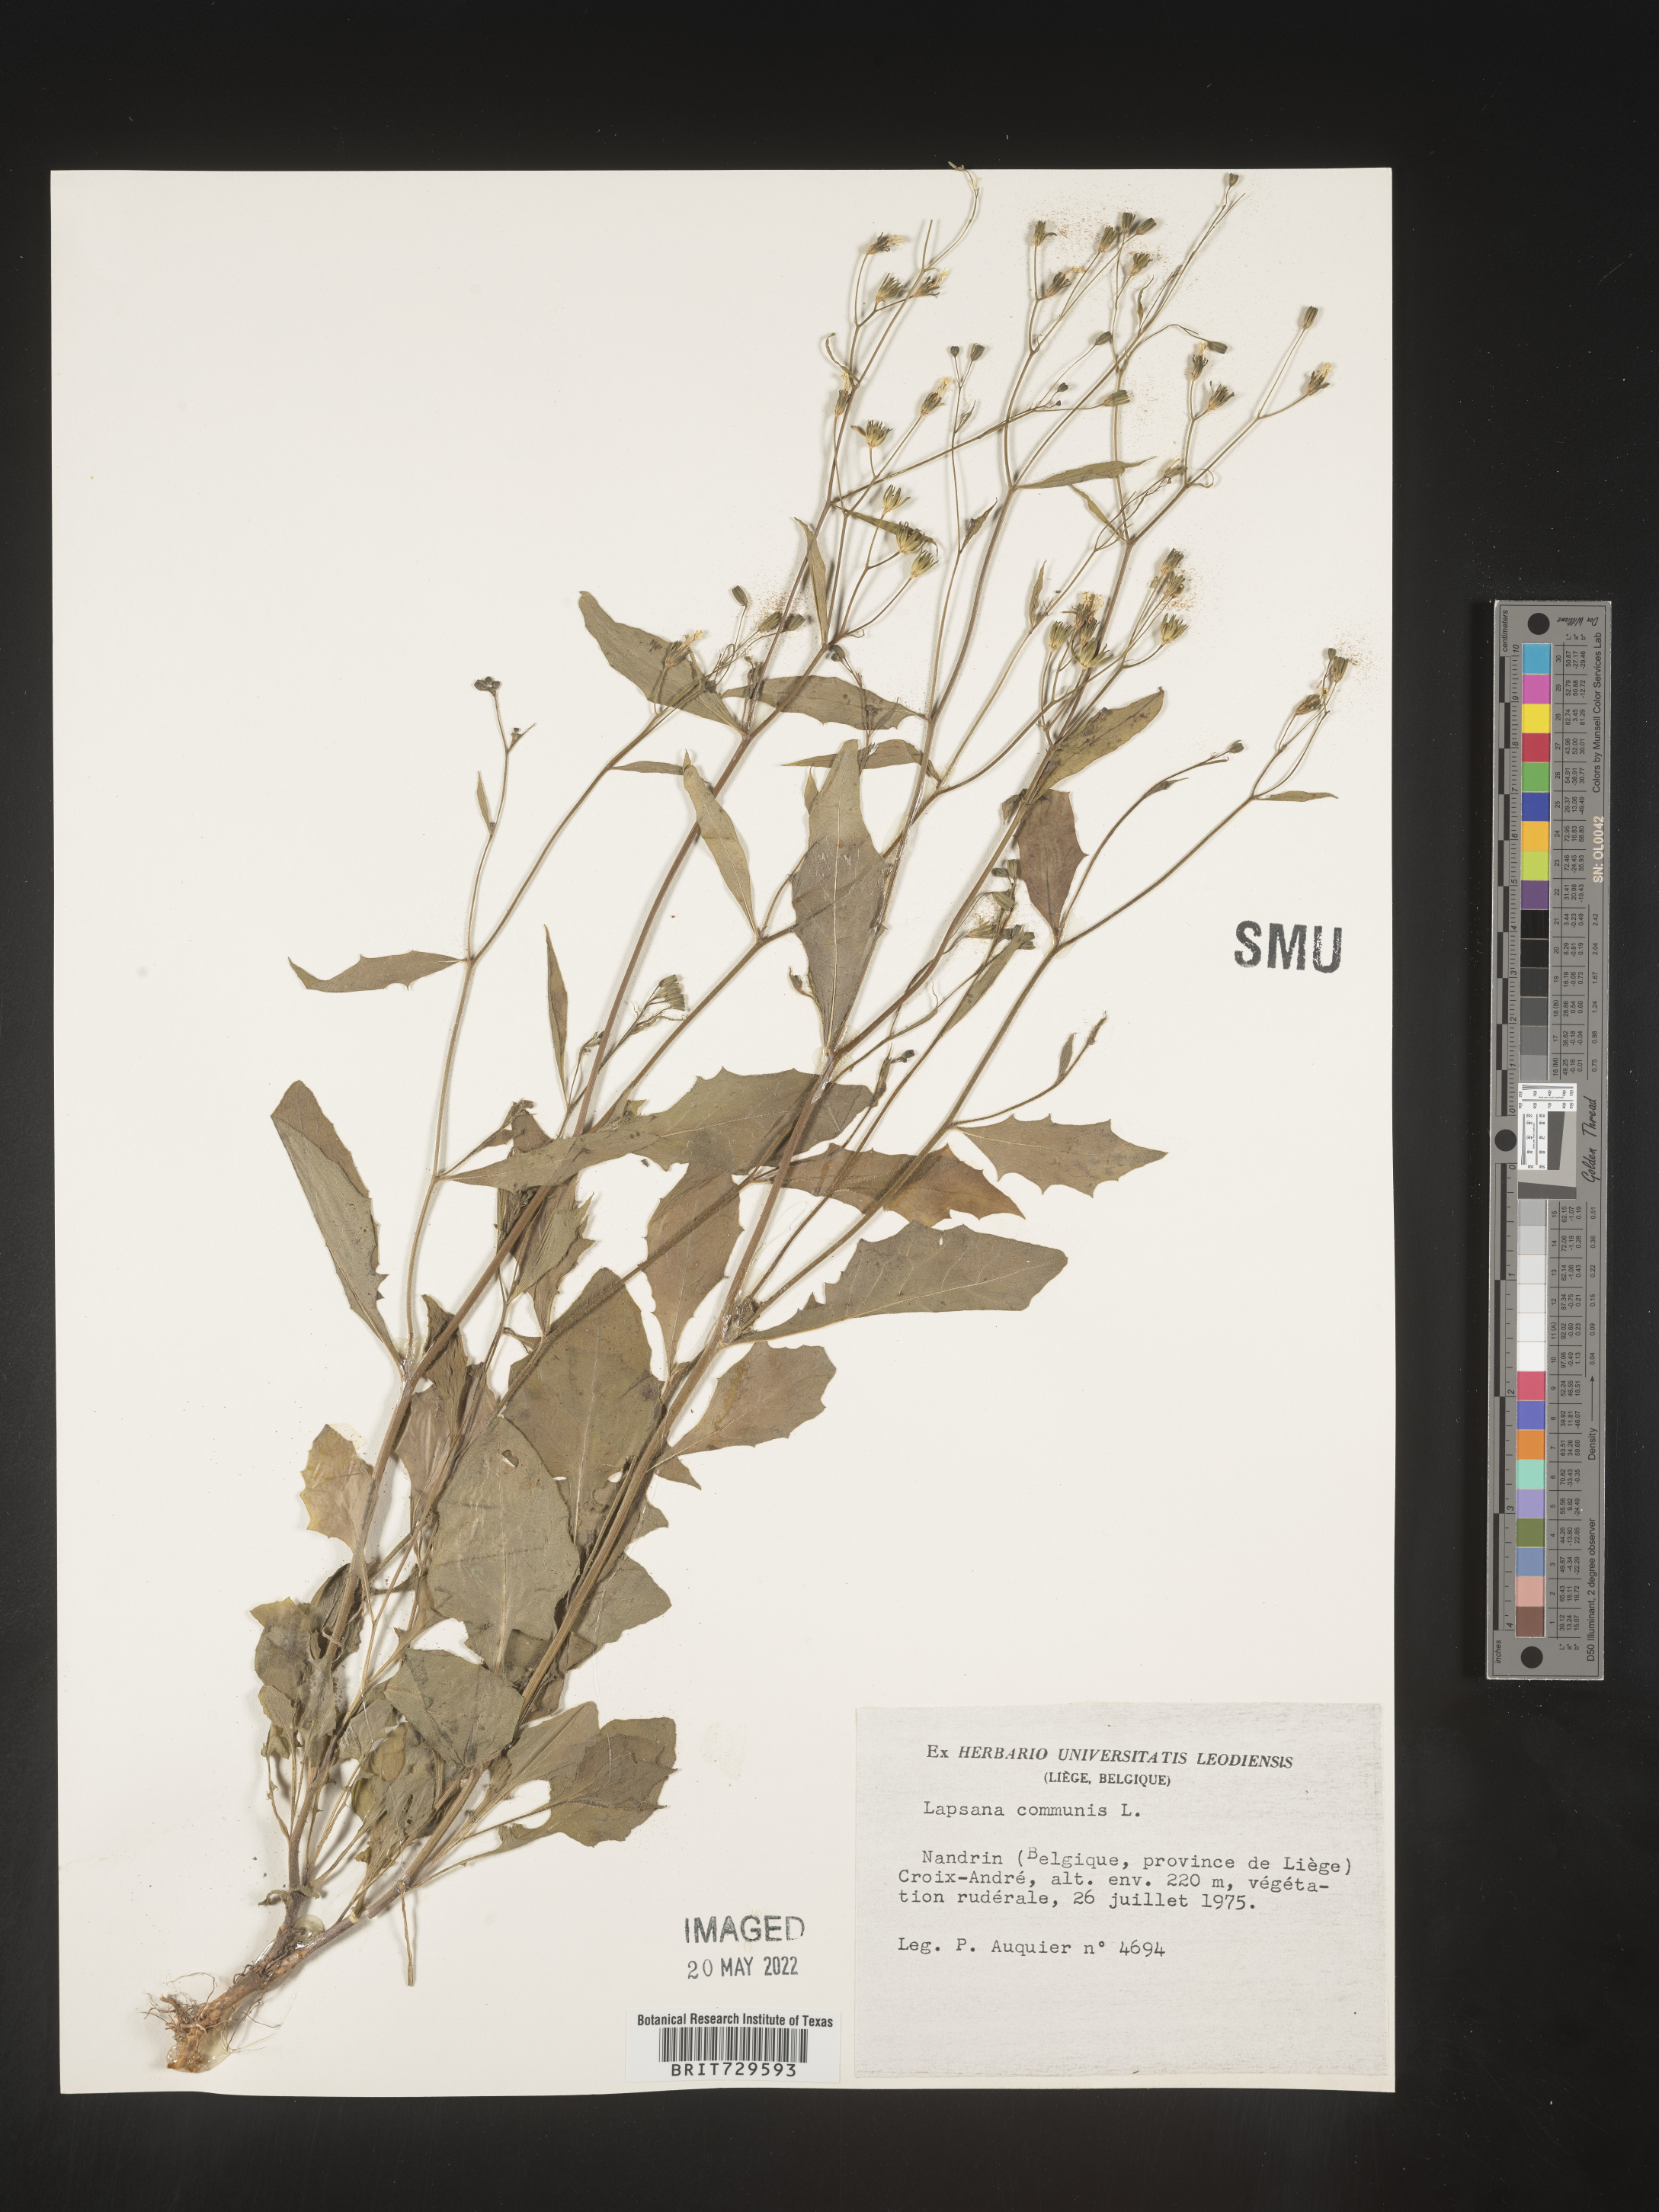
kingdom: Plantae
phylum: Tracheophyta
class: Magnoliopsida
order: Asterales
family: Asteraceae
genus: Lapsana
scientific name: Lapsana
